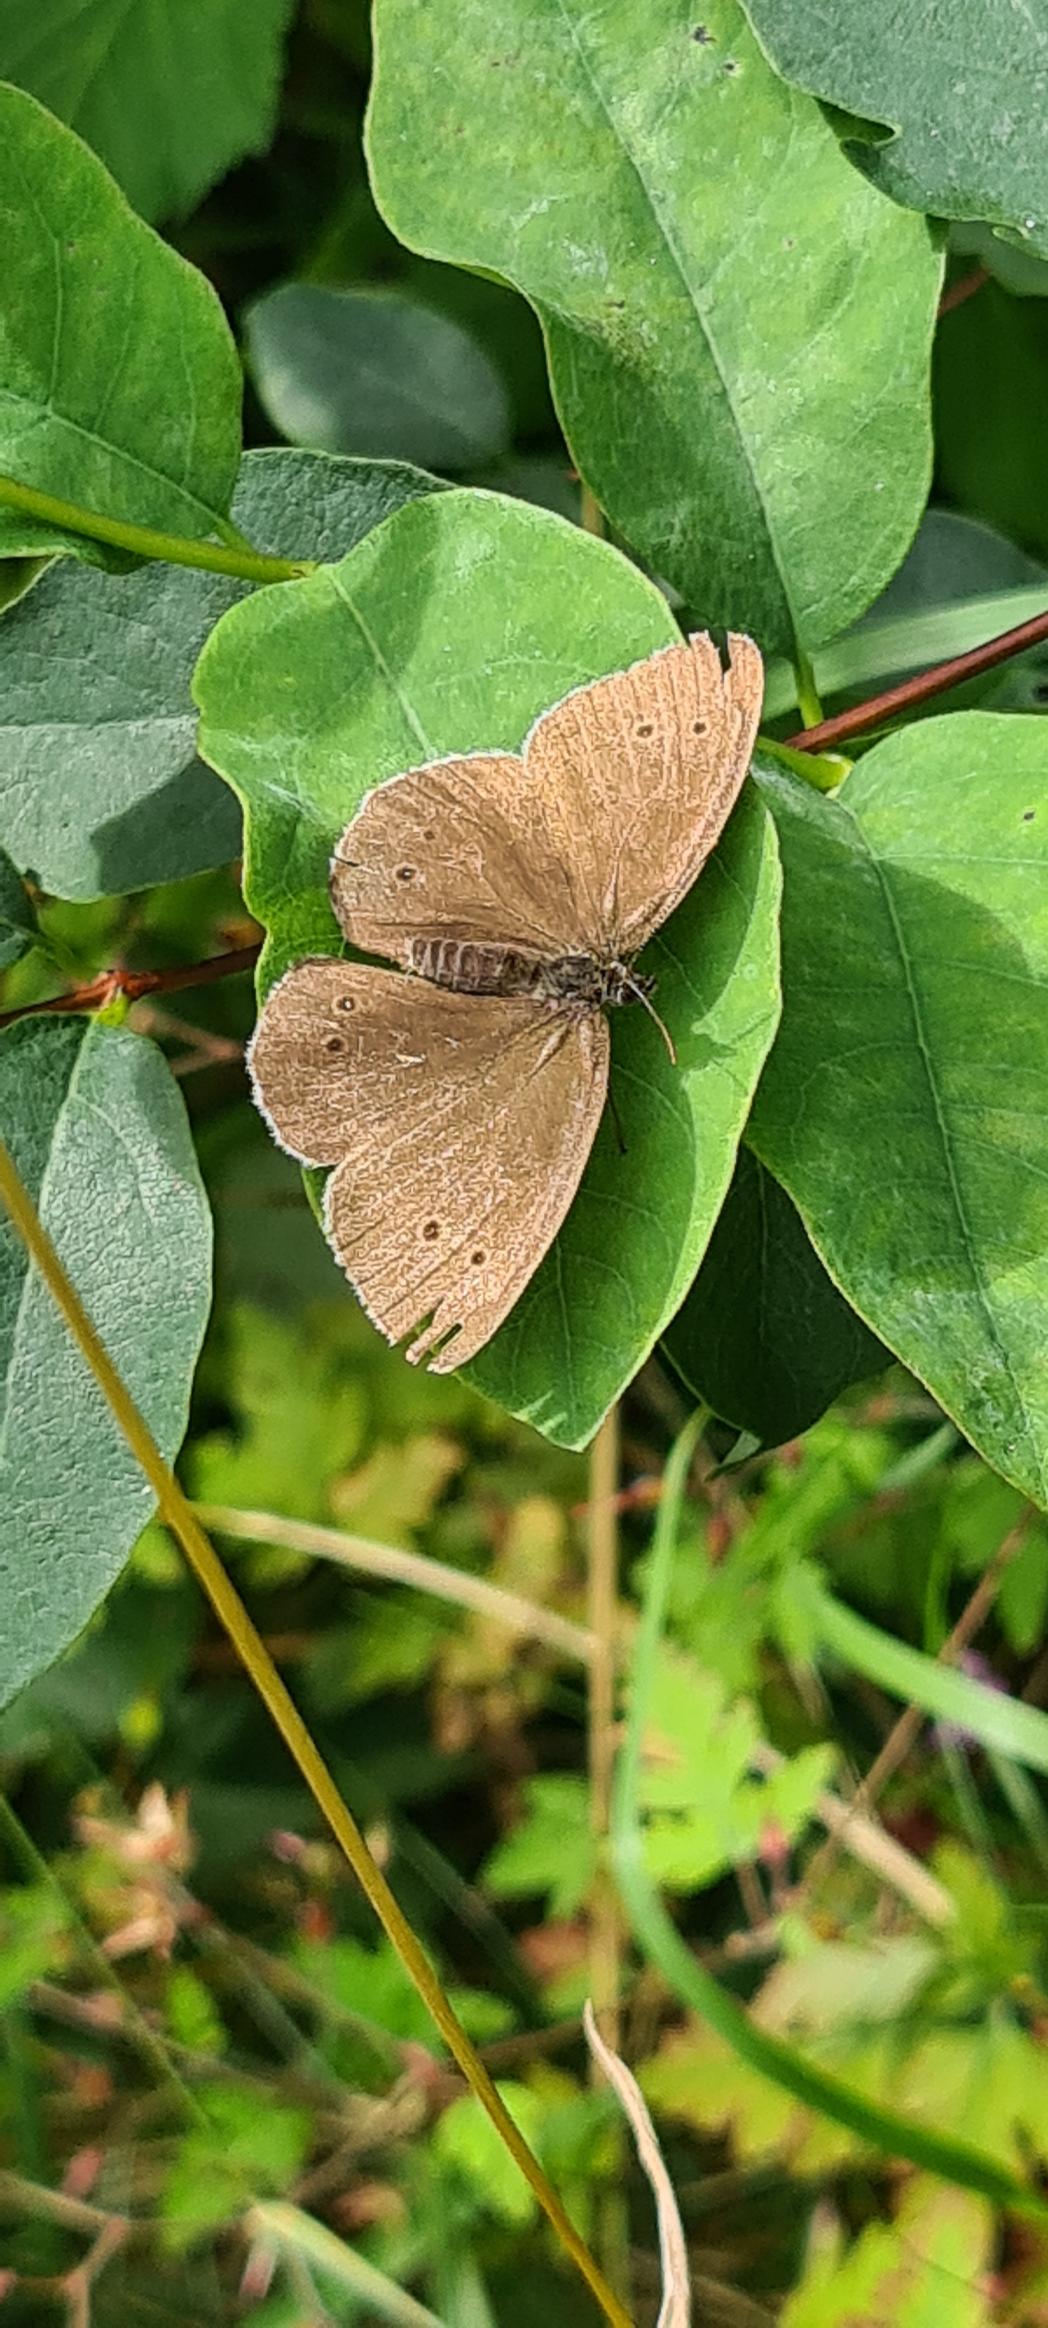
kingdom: Animalia
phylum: Arthropoda
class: Insecta
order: Lepidoptera
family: Nymphalidae
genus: Aphantopus
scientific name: Aphantopus hyperantus
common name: Engrandøje
